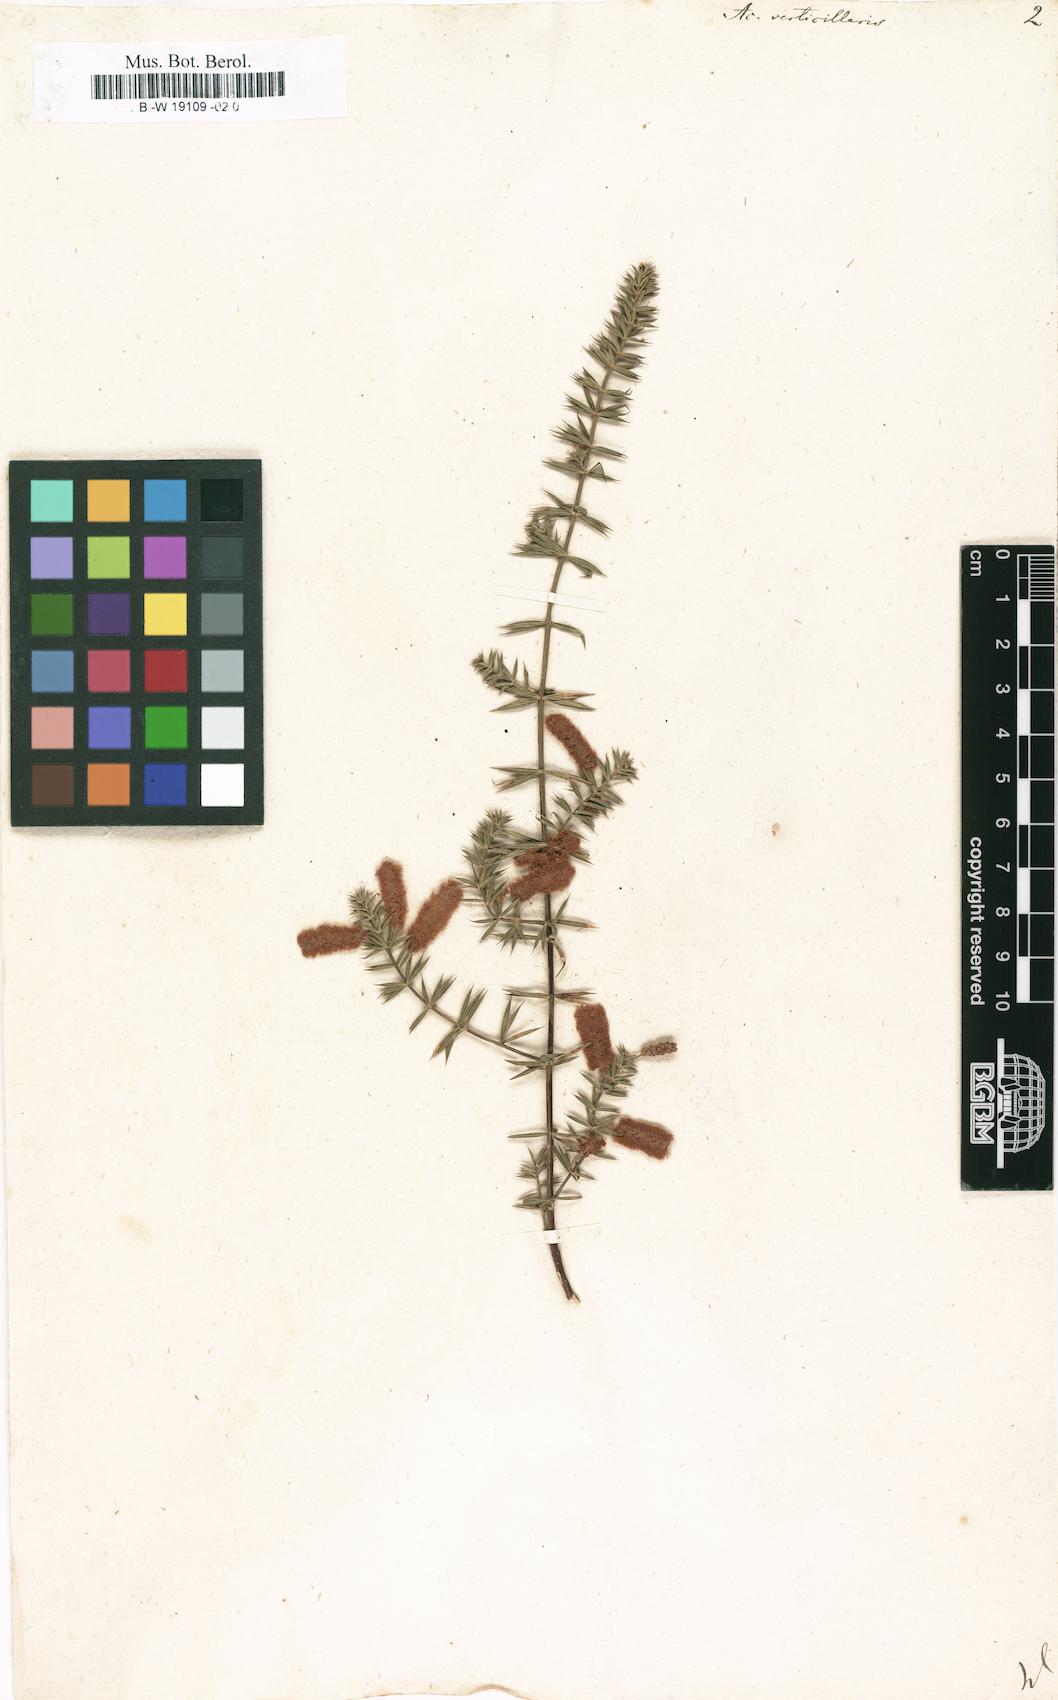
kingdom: Plantae
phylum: Tracheophyta
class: Magnoliopsida
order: Fabales
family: Fabaceae
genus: Acacia
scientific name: Acacia verticillata
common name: Prickly moses
